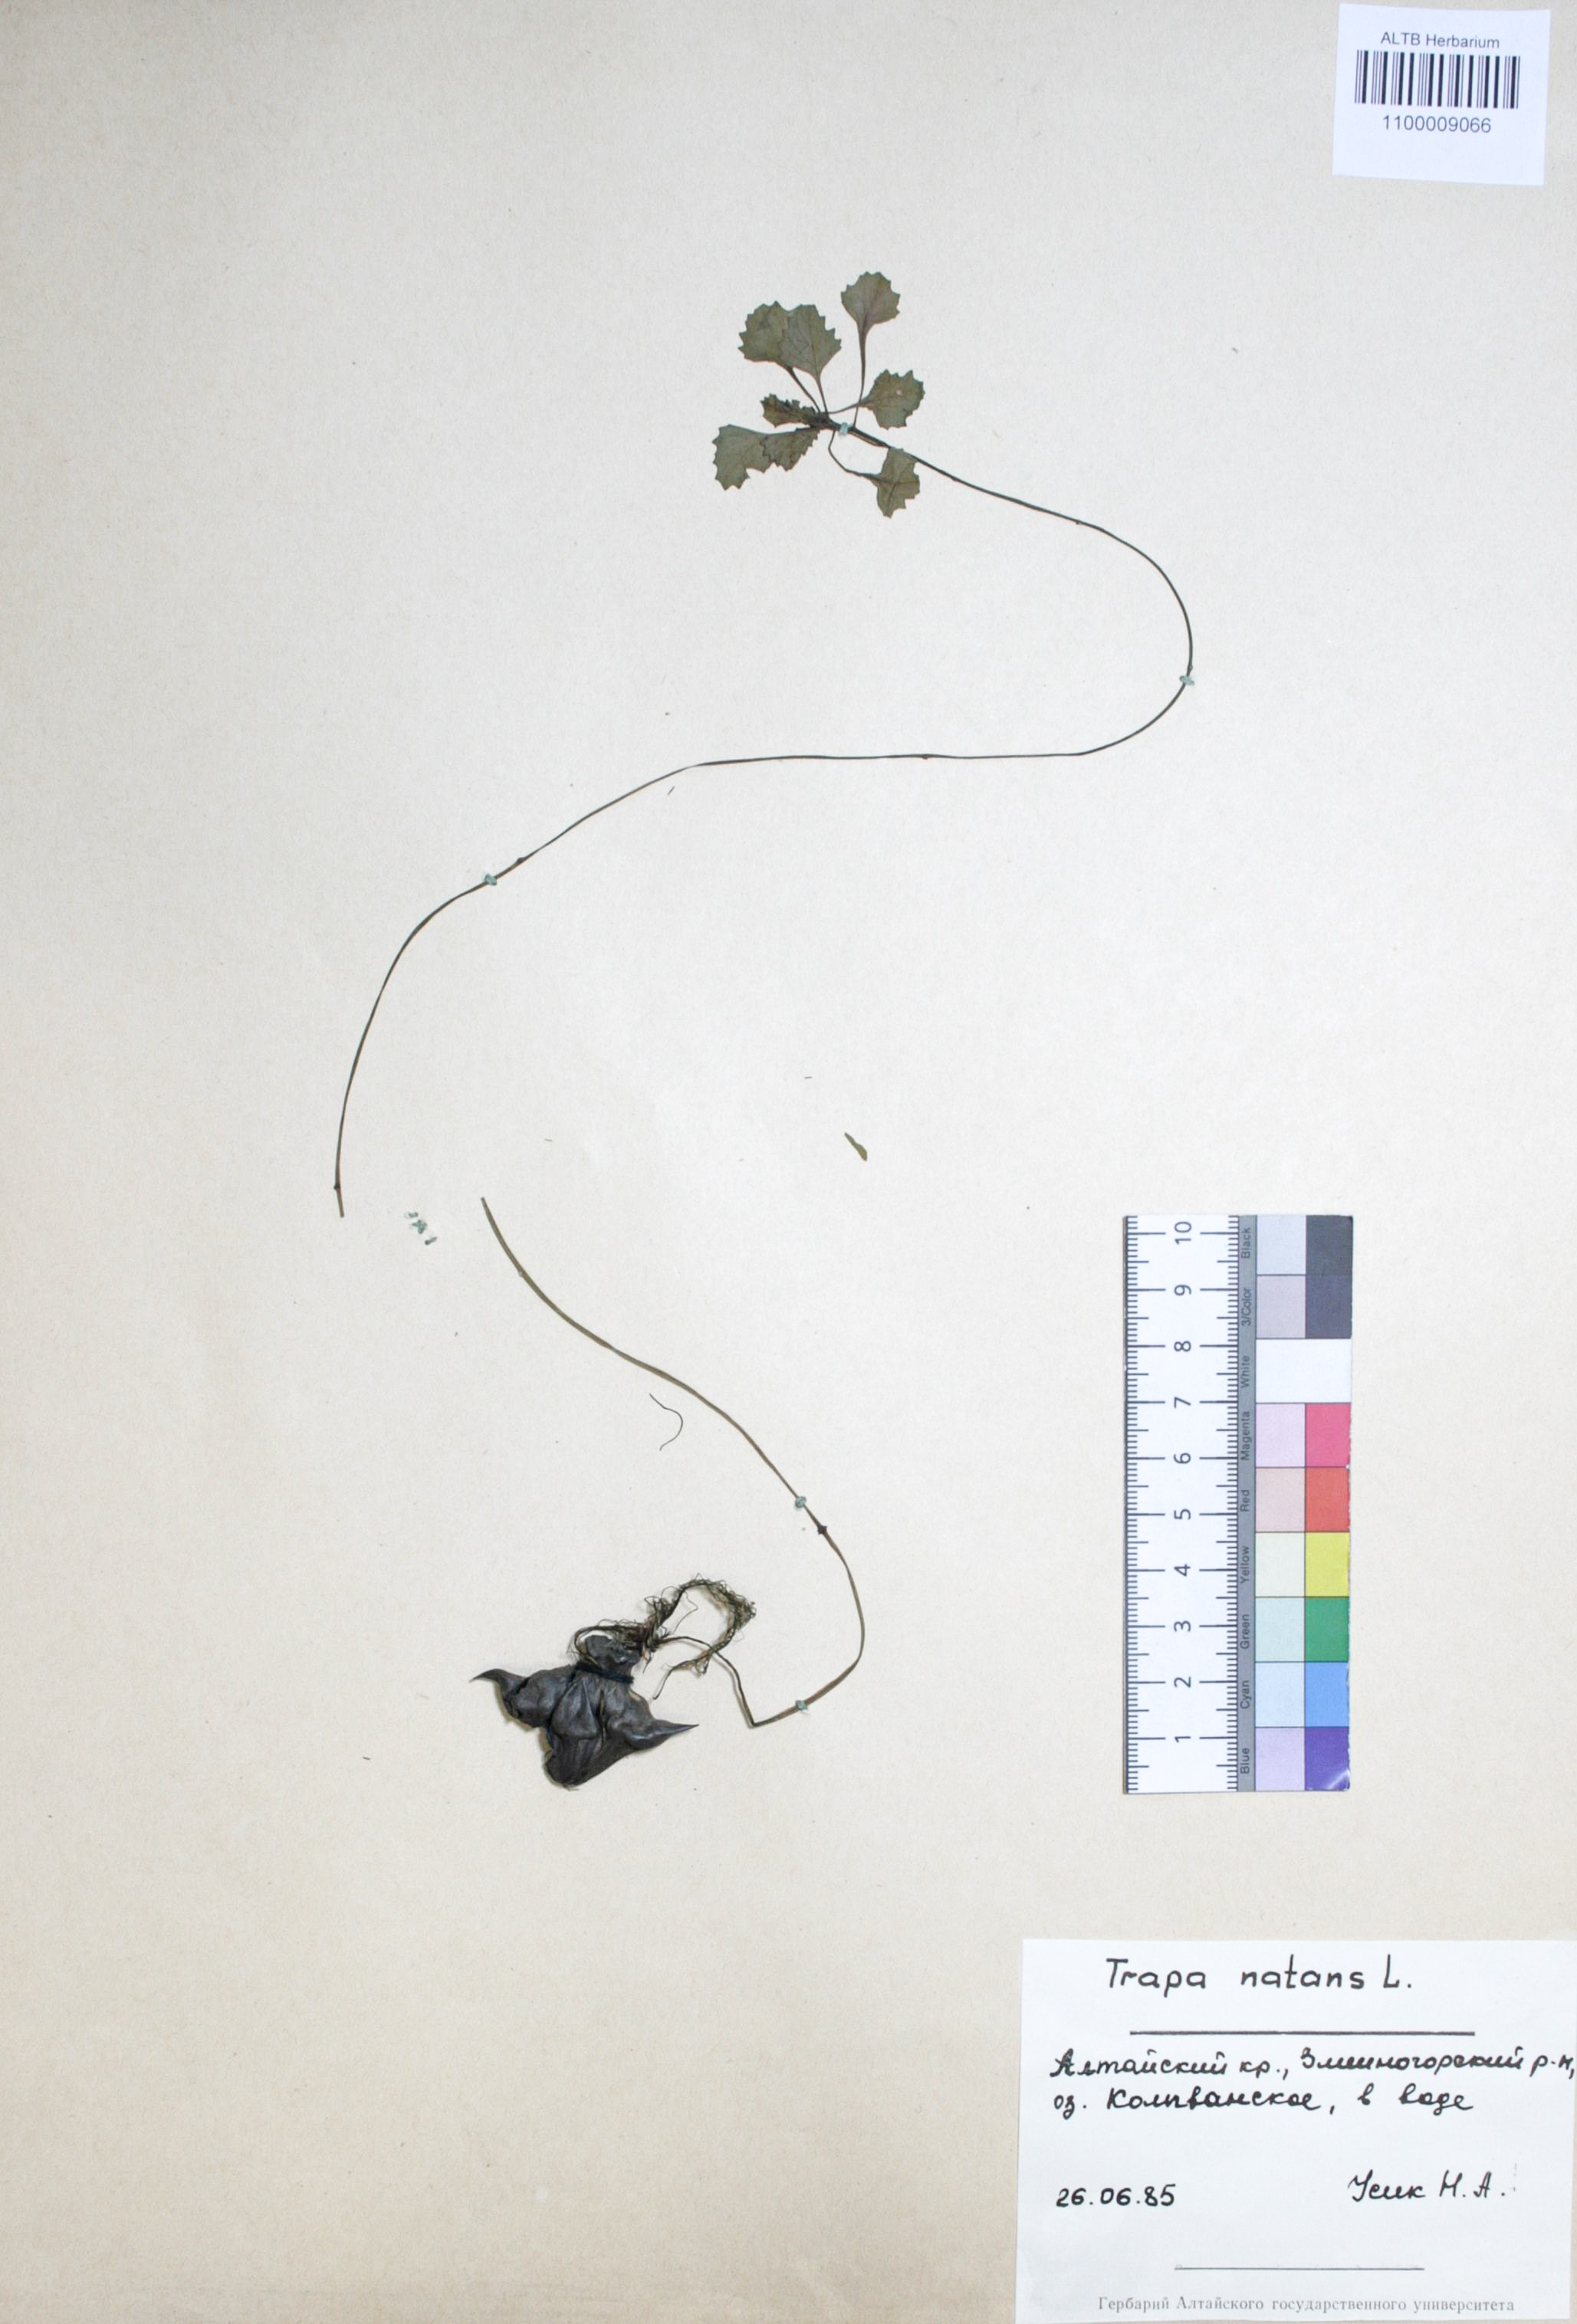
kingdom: Plantae
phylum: Tracheophyta
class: Magnoliopsida
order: Myrtales
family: Lythraceae
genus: Trapa
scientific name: Trapa natans
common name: Water chestnut
